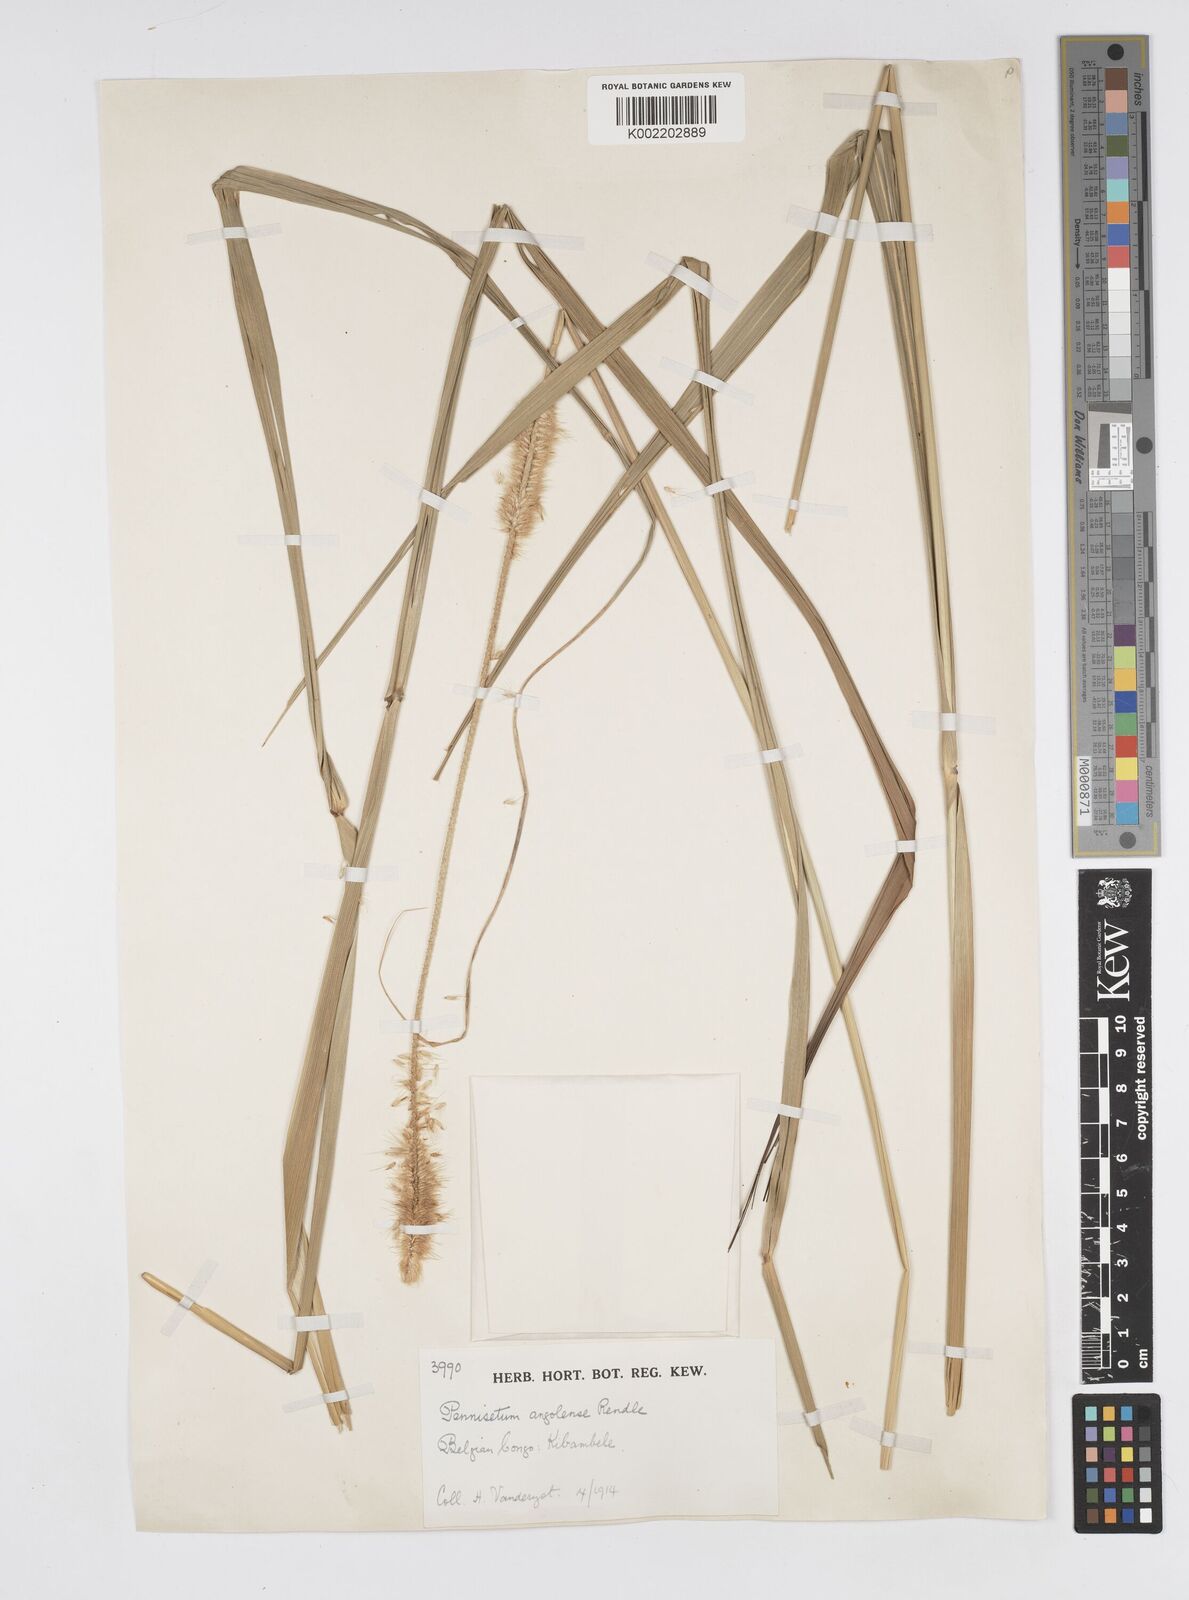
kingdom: Plantae
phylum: Tracheophyta
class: Liliopsida
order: Poales
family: Poaceae
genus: Cenchrus
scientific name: Cenchrus caudatus
